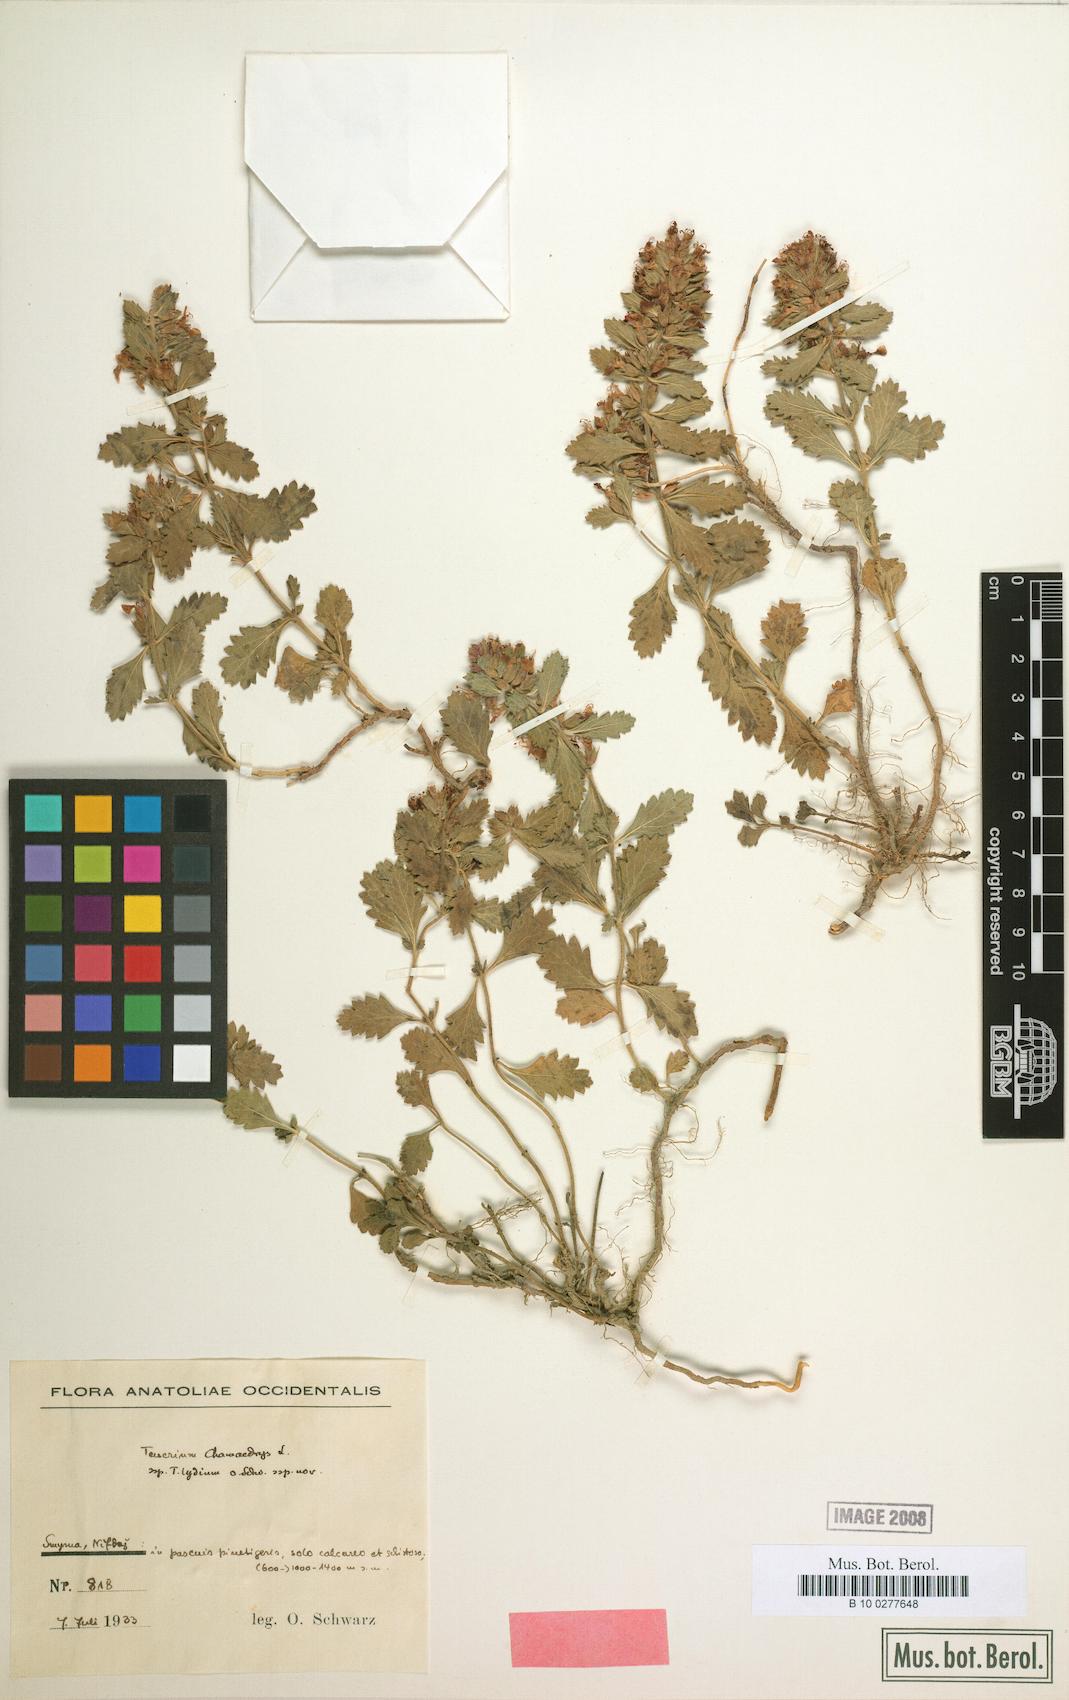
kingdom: Plantae
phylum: Tracheophyta
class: Magnoliopsida
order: Lamiales
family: Lamiaceae
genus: Teucrium
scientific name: Teucrium chamaedrys
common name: Wall germander
